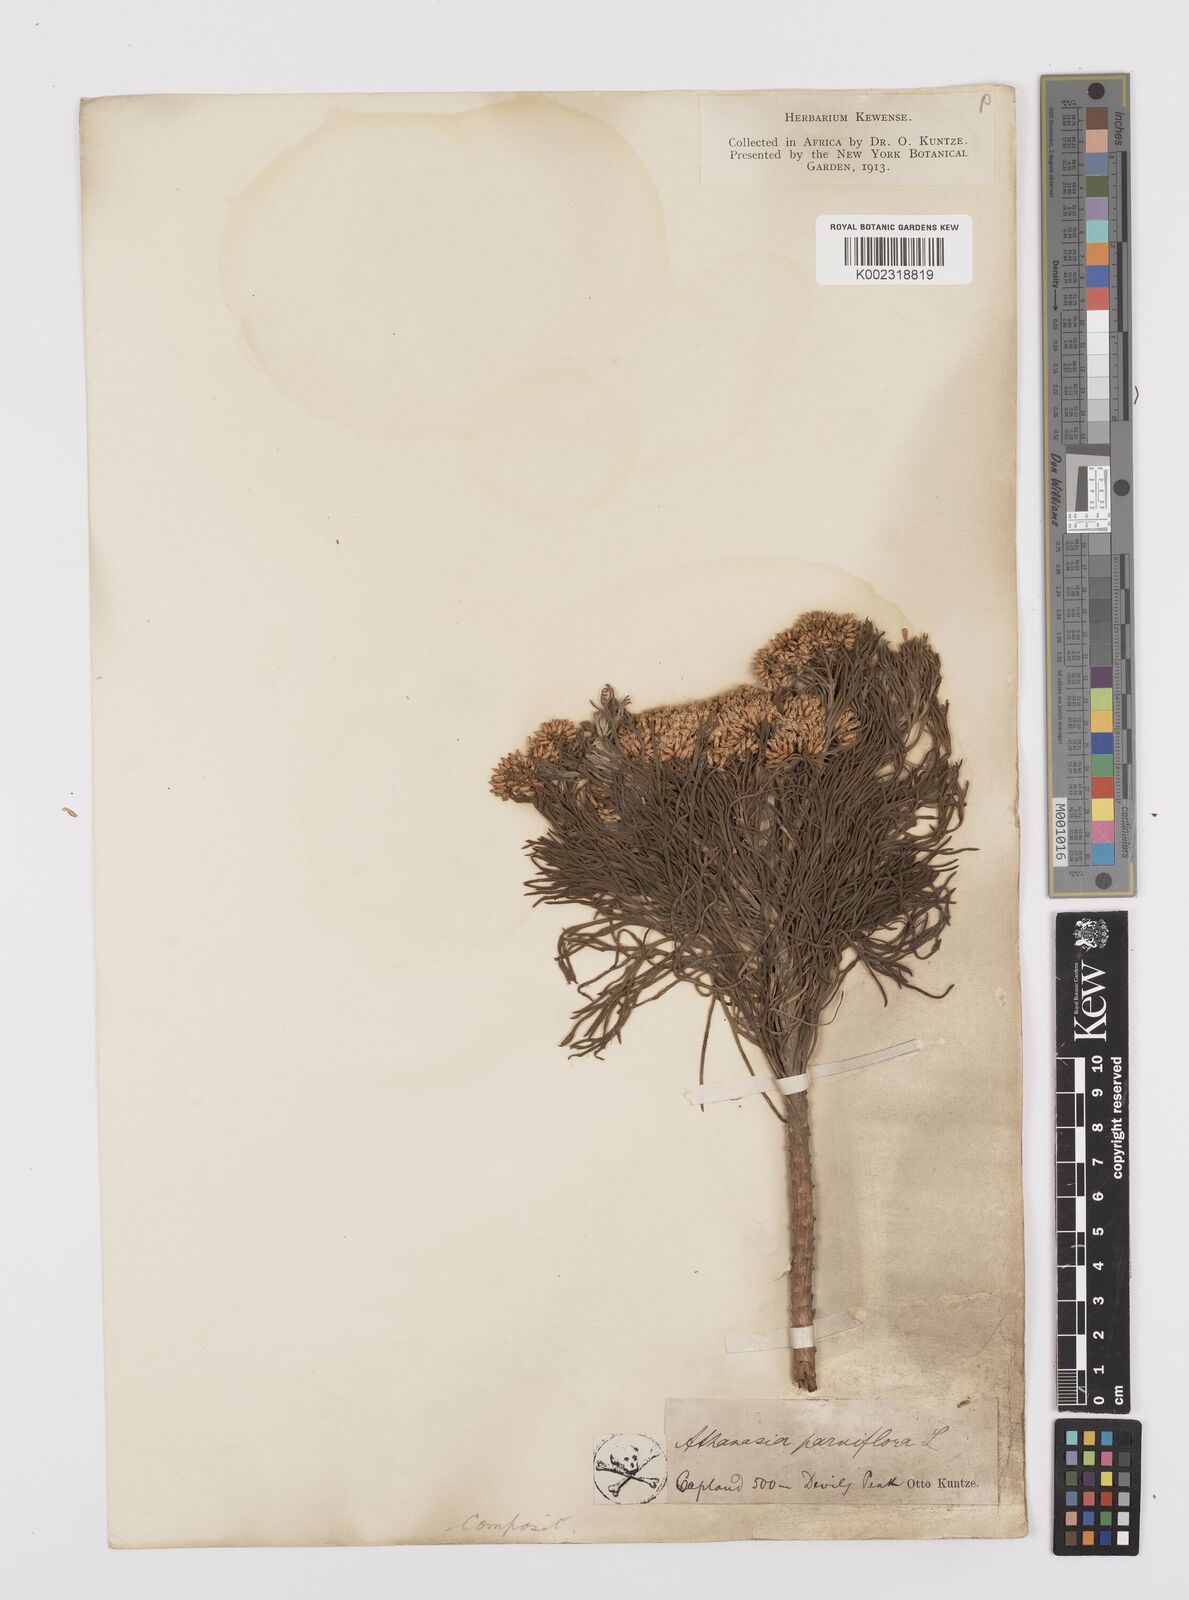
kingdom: Plantae
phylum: Tracheophyta
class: Magnoliopsida
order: Asterales
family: Asteraceae
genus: Hymenolepis
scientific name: Hymenolepis crithmifolia
